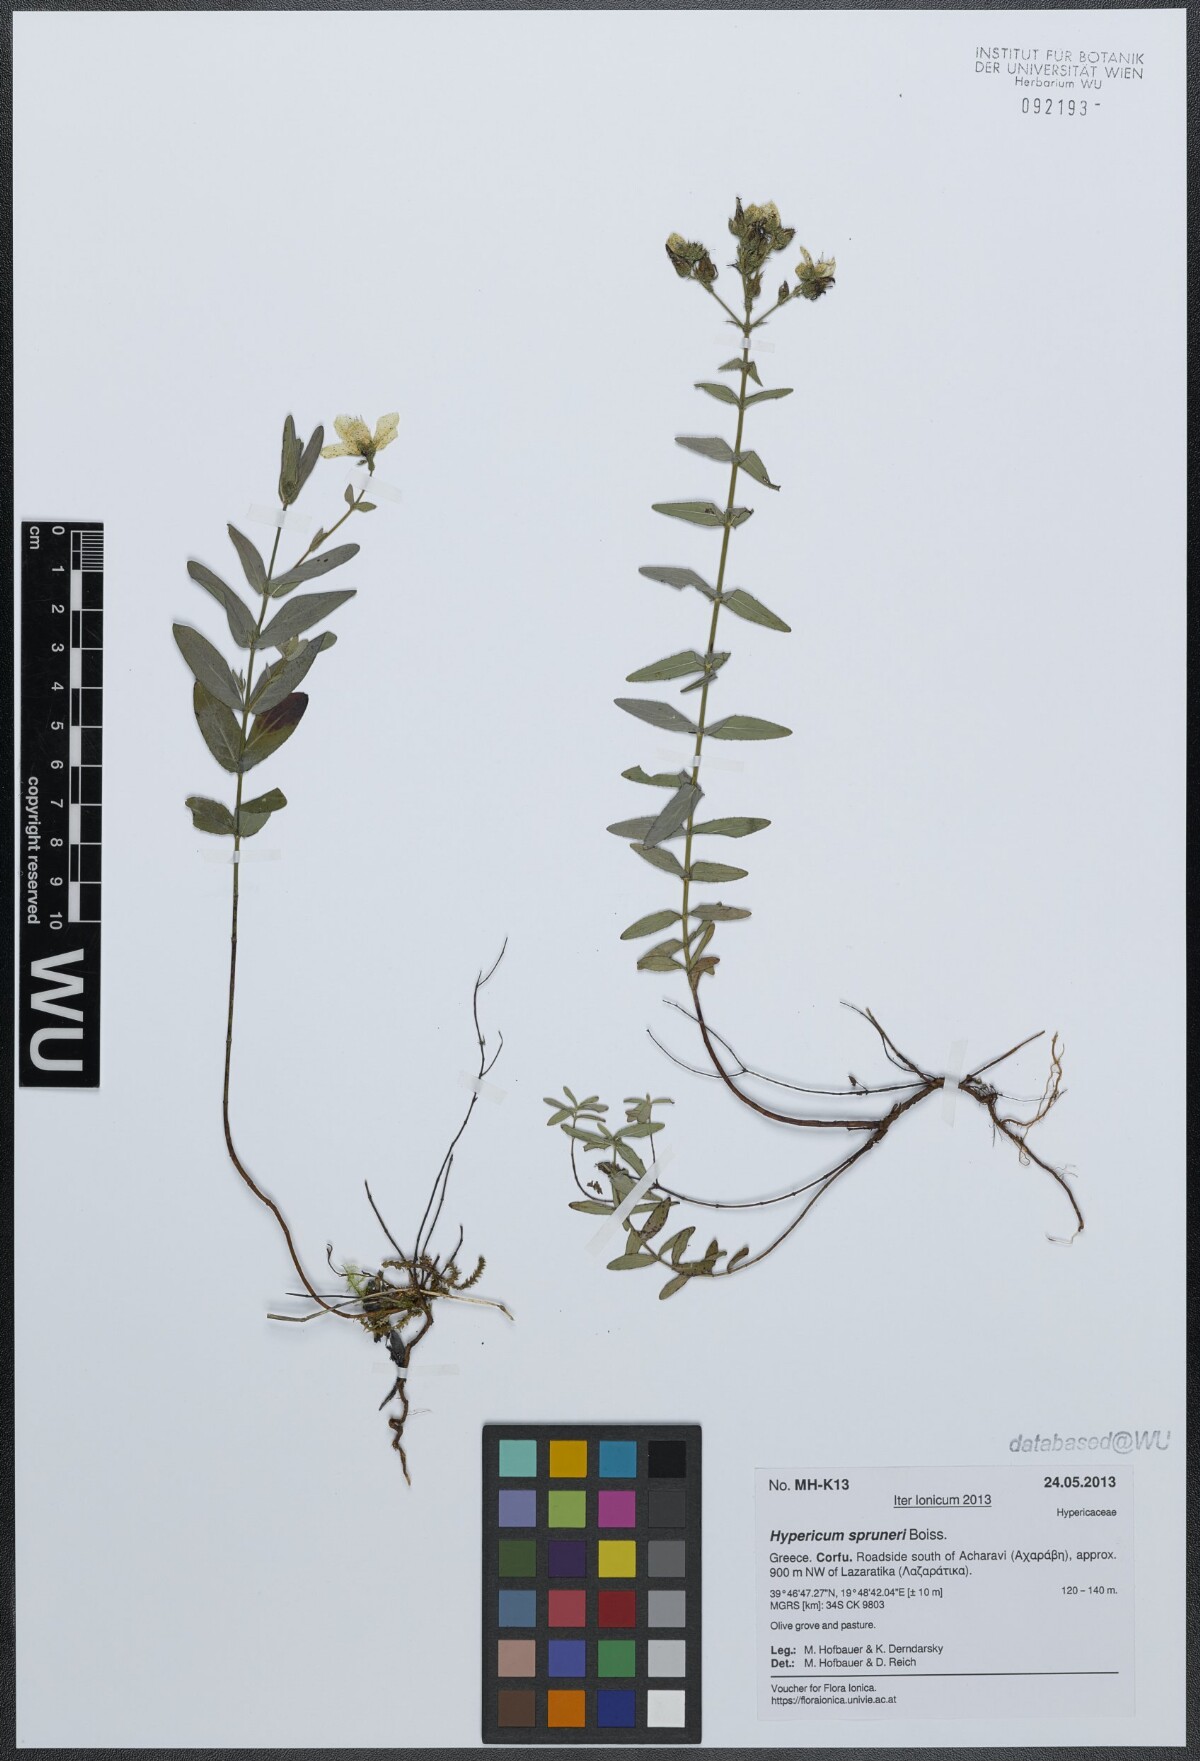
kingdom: Plantae
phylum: Tracheophyta
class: Magnoliopsida
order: Malpighiales
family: Hypericaceae
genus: Hypericum
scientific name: Hypericum spruneri
